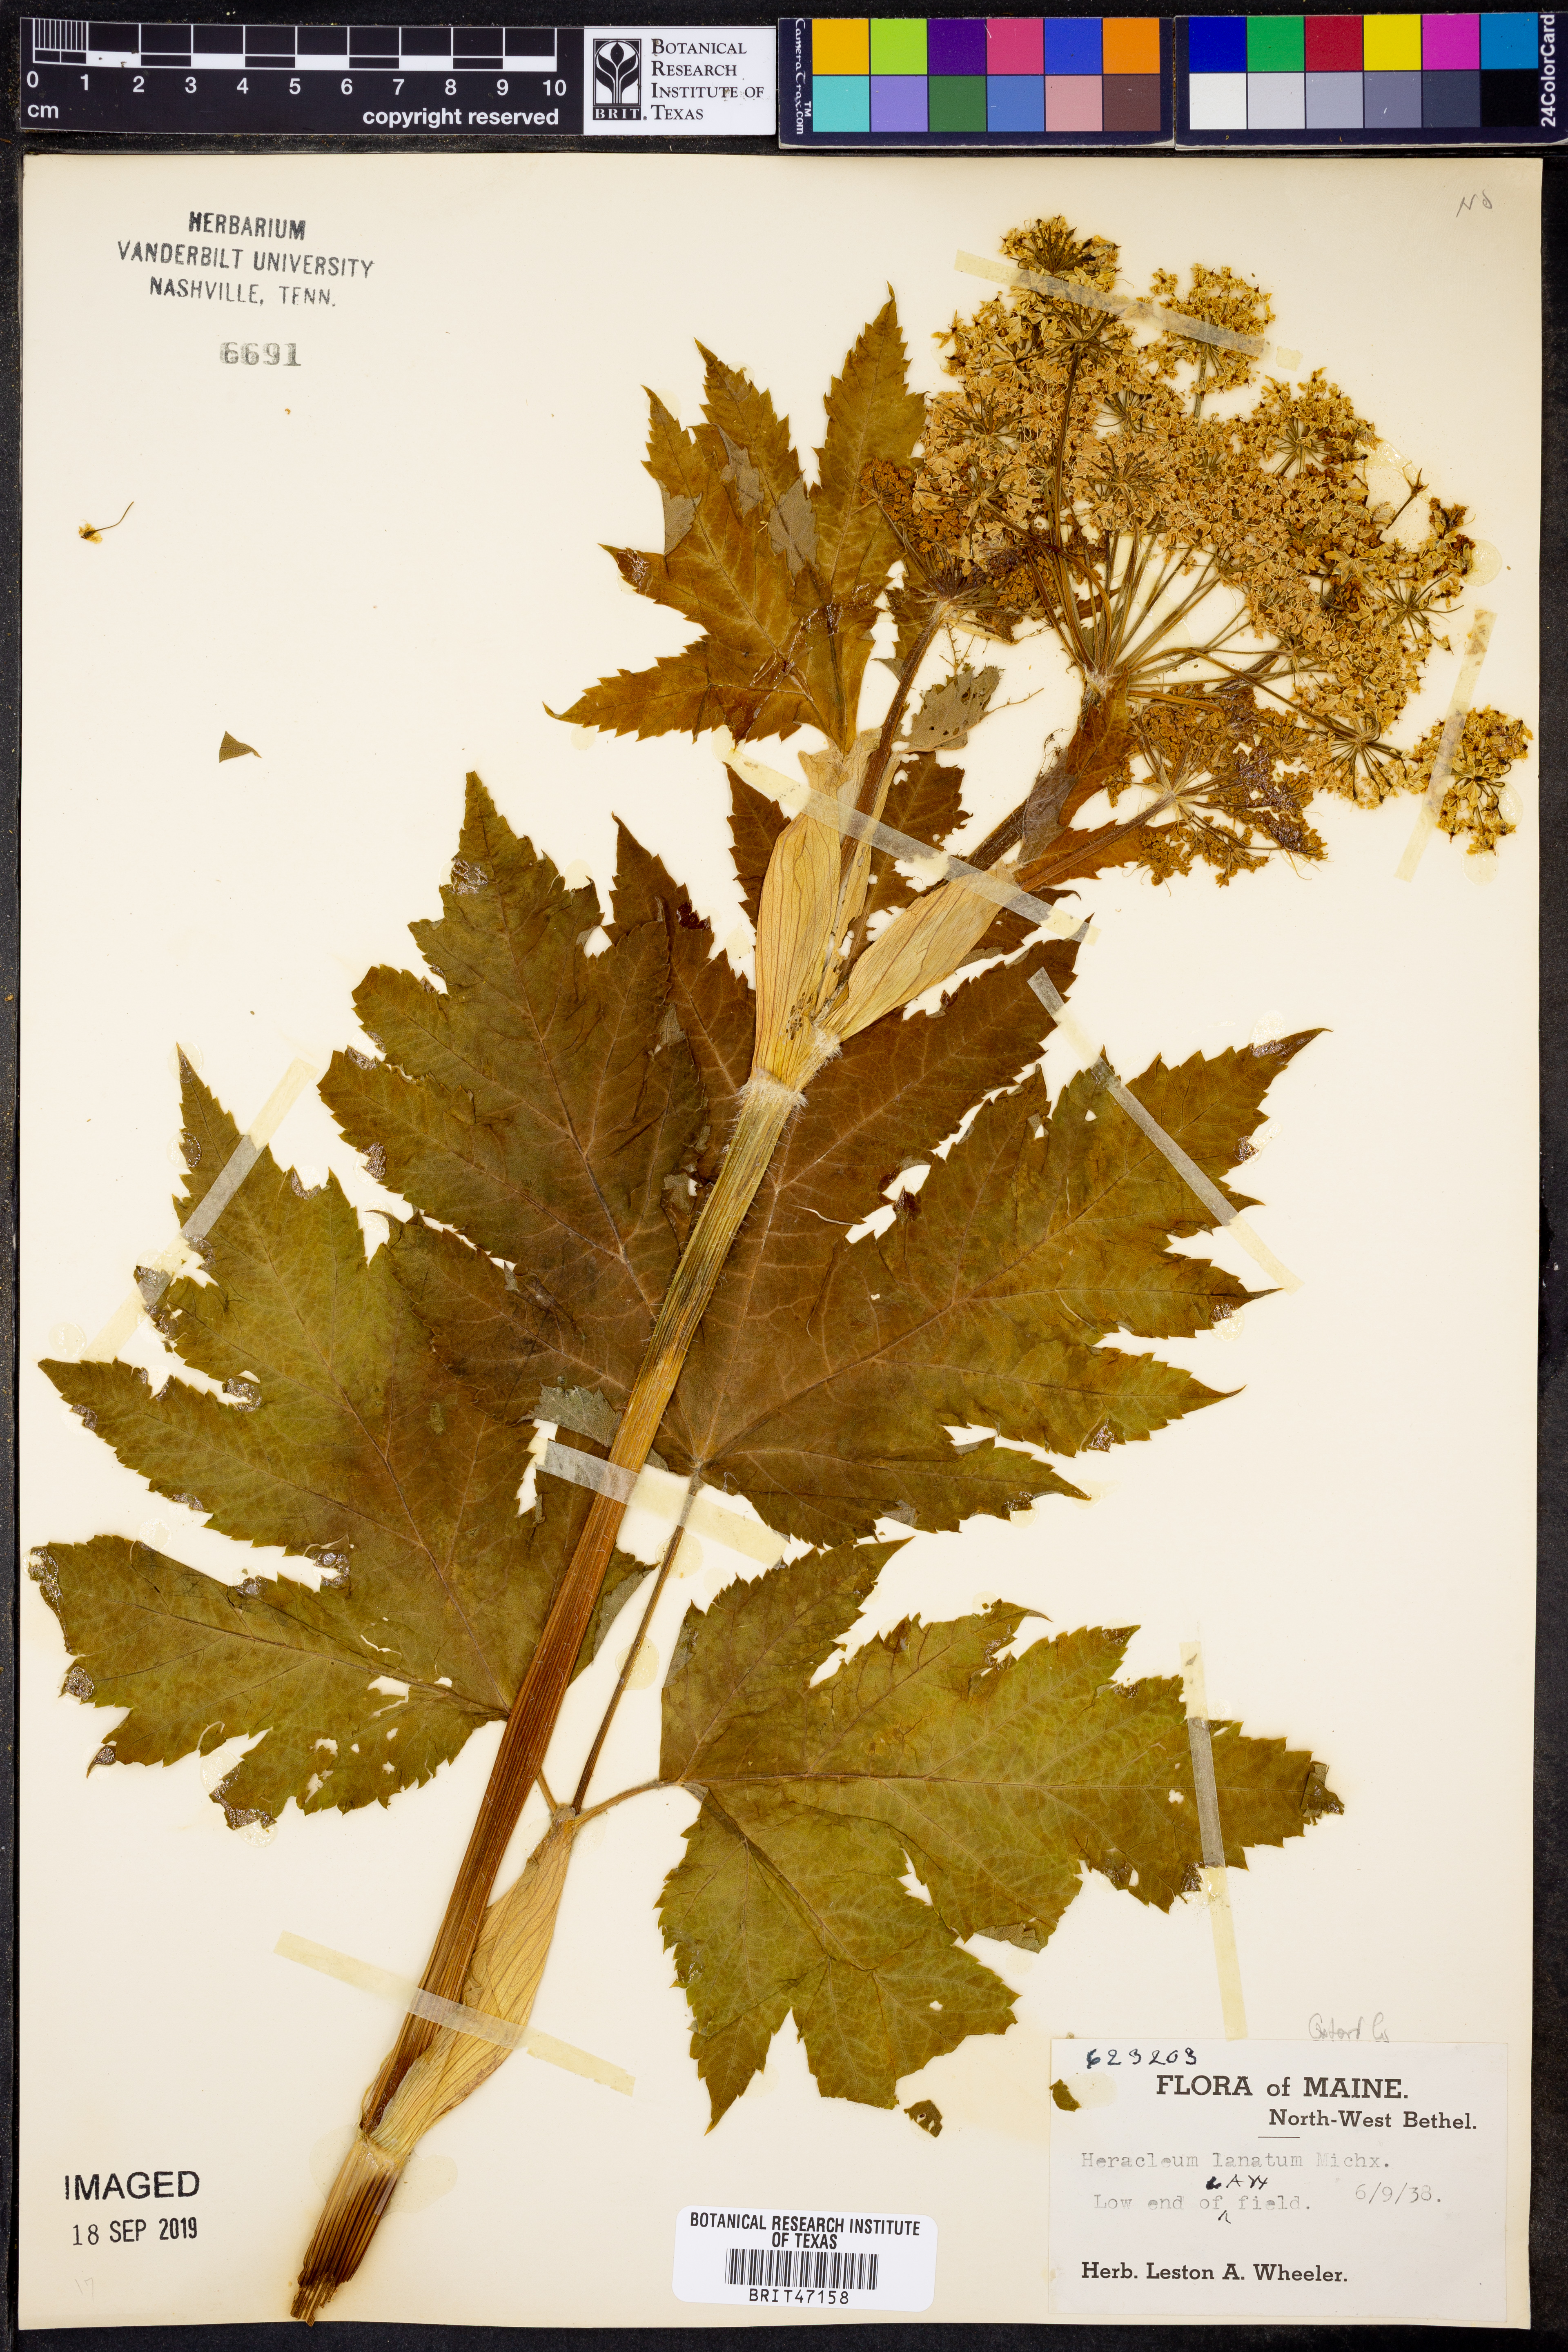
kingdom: Plantae
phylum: Tracheophyta
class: Magnoliopsida
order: Apiales
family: Apiaceae
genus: Heracleum
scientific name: Heracleum maximum
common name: American cow parsnip
